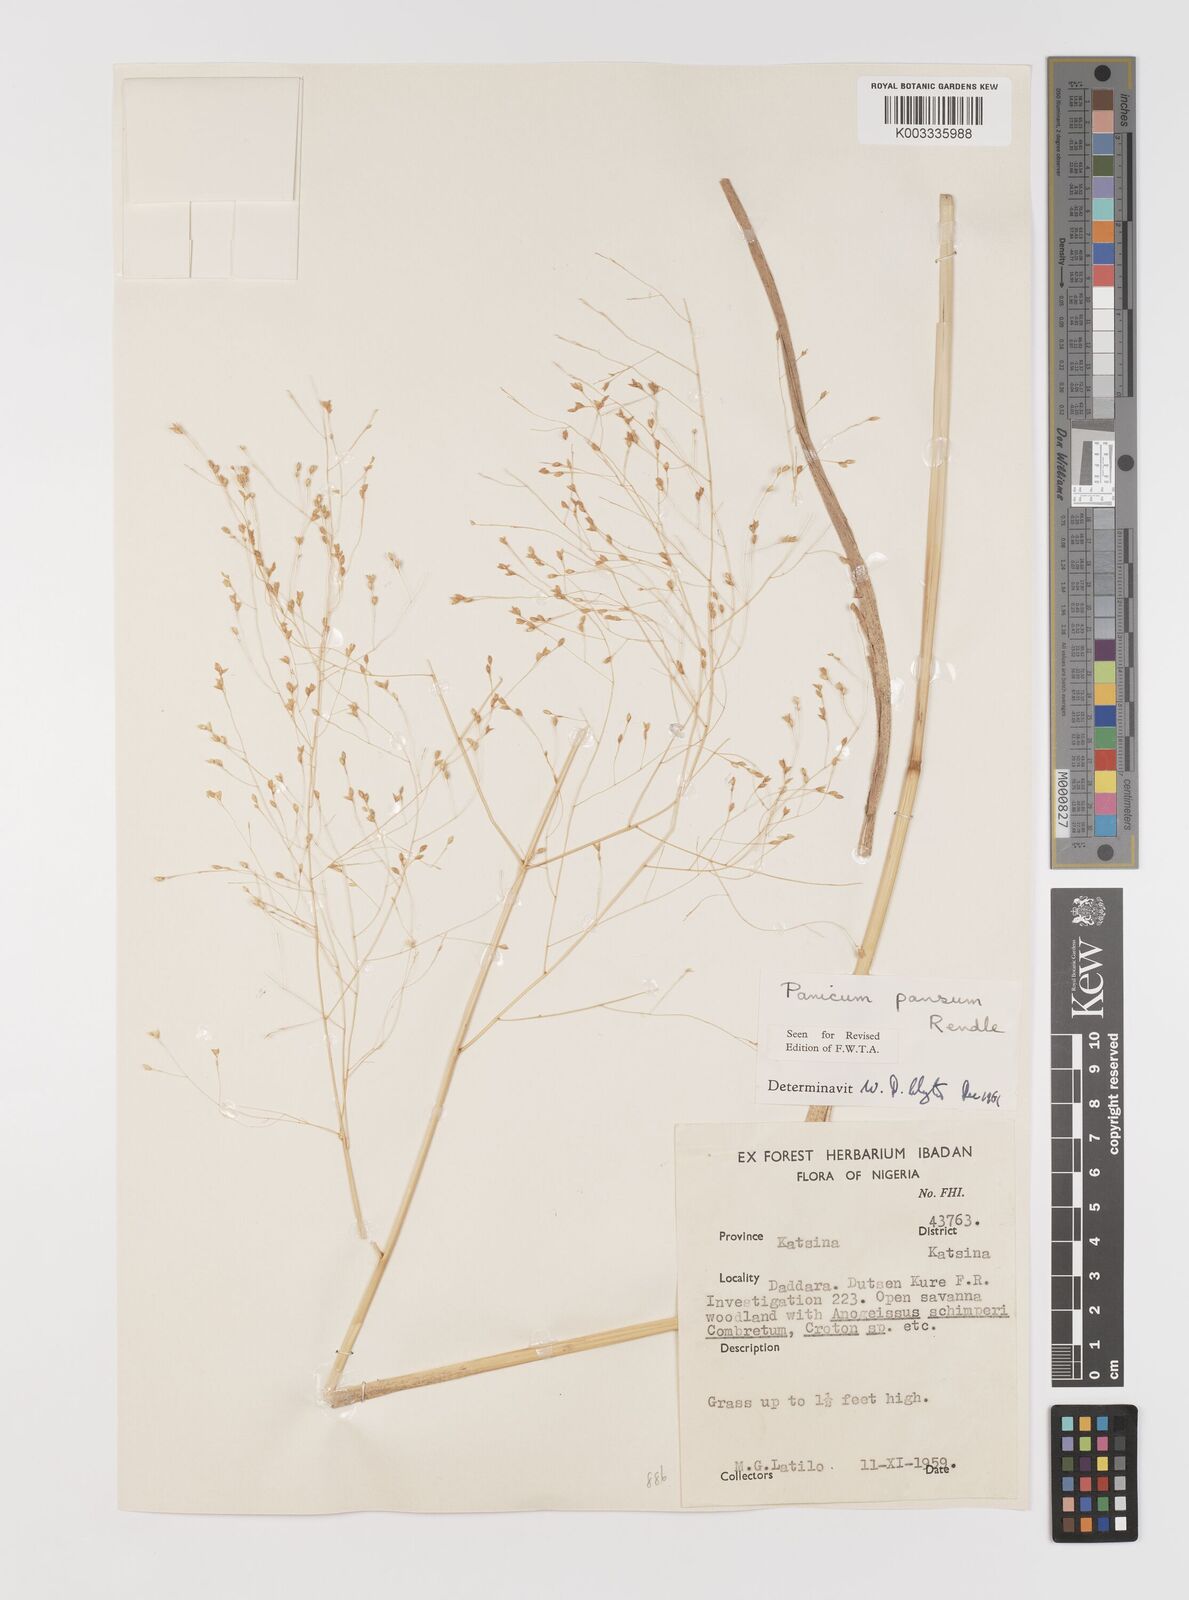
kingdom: Plantae
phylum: Tracheophyta
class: Liliopsida
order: Poales
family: Poaceae
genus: Panicum
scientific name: Panicum pansum
